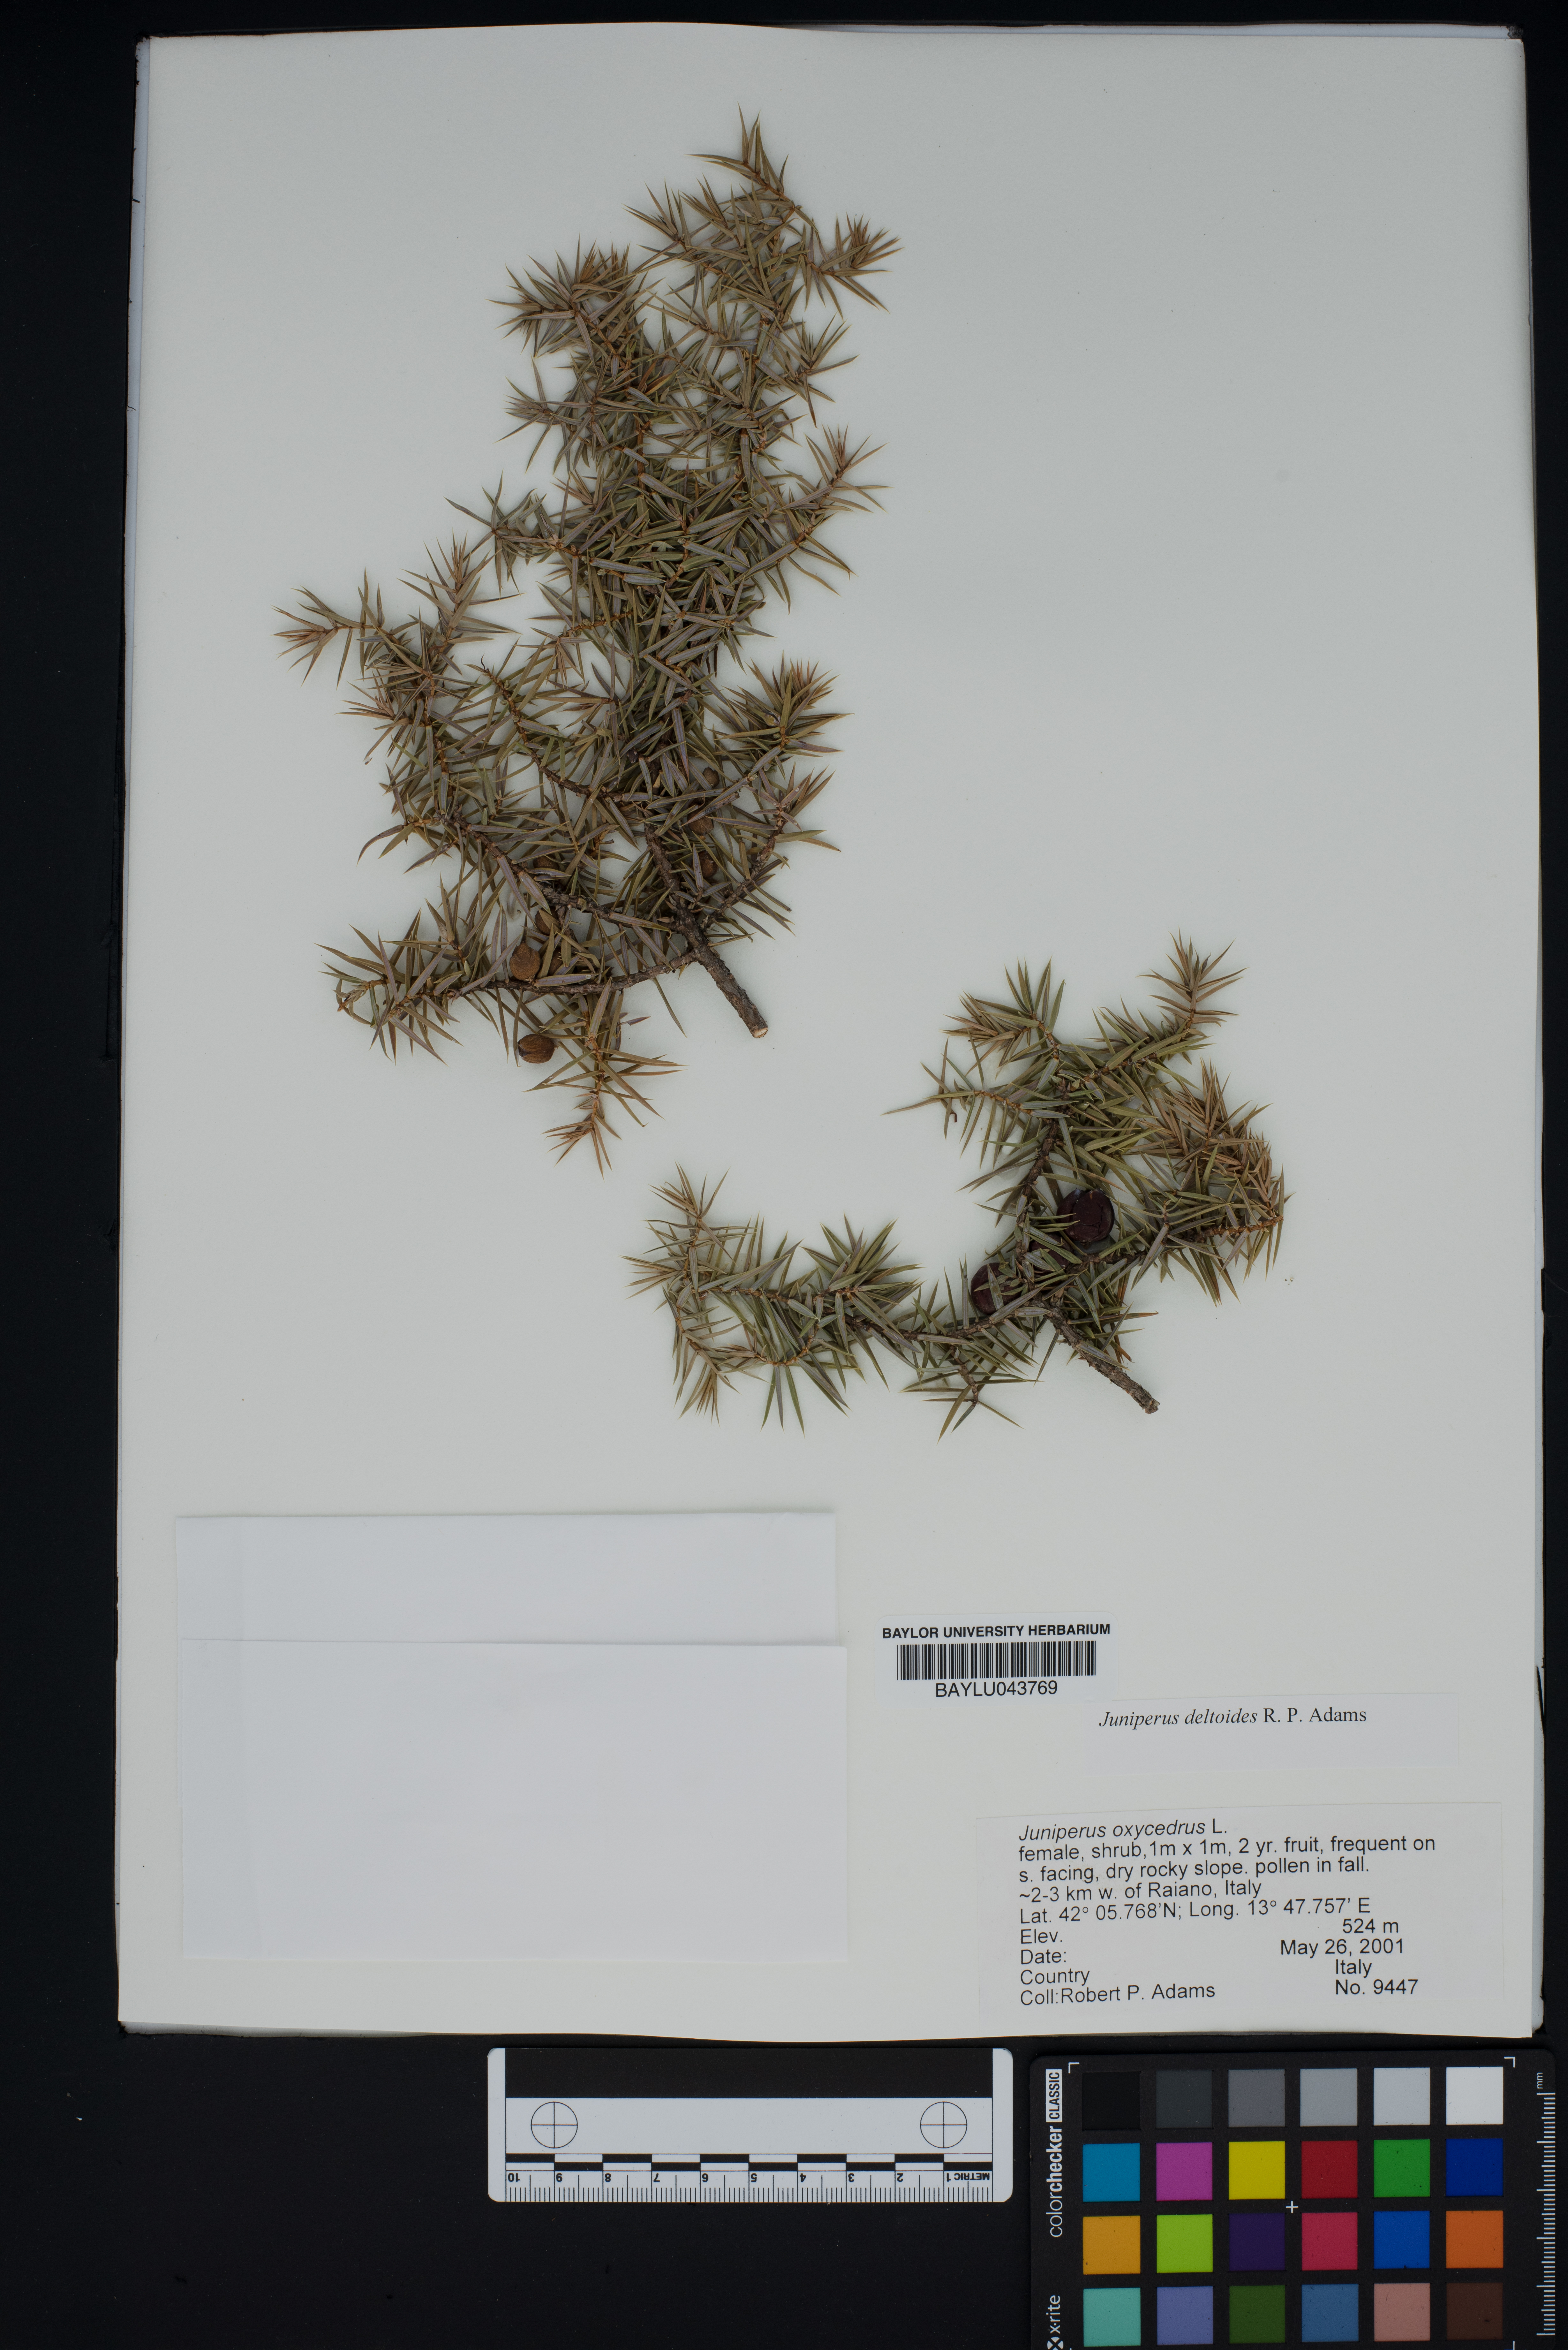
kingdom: Plantae
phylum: Tracheophyta
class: Pinopsida
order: Pinales
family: Cupressaceae
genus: Juniperus
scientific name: Juniperus oxycedrus
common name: Prickly juniper
